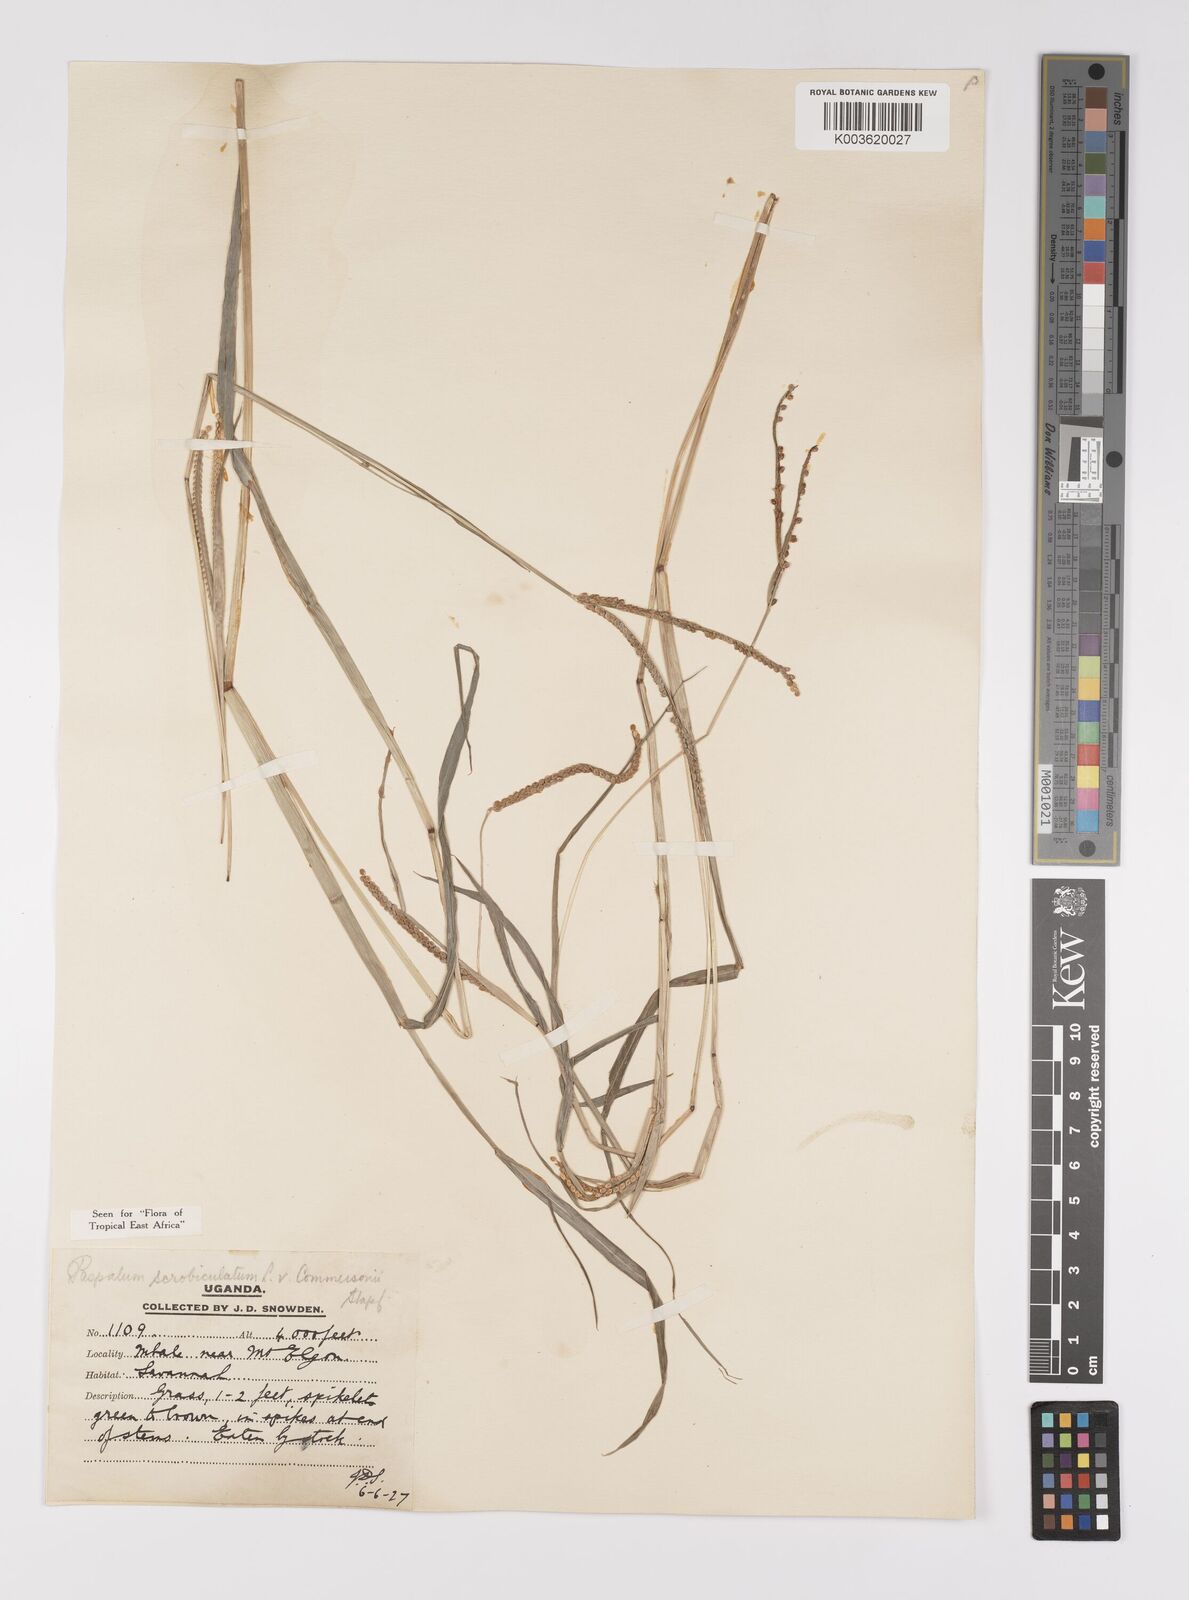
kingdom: Plantae
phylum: Tracheophyta
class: Liliopsida
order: Poales
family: Poaceae
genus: Paspalum
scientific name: Paspalum scrobiculatum
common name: Kodo millet
